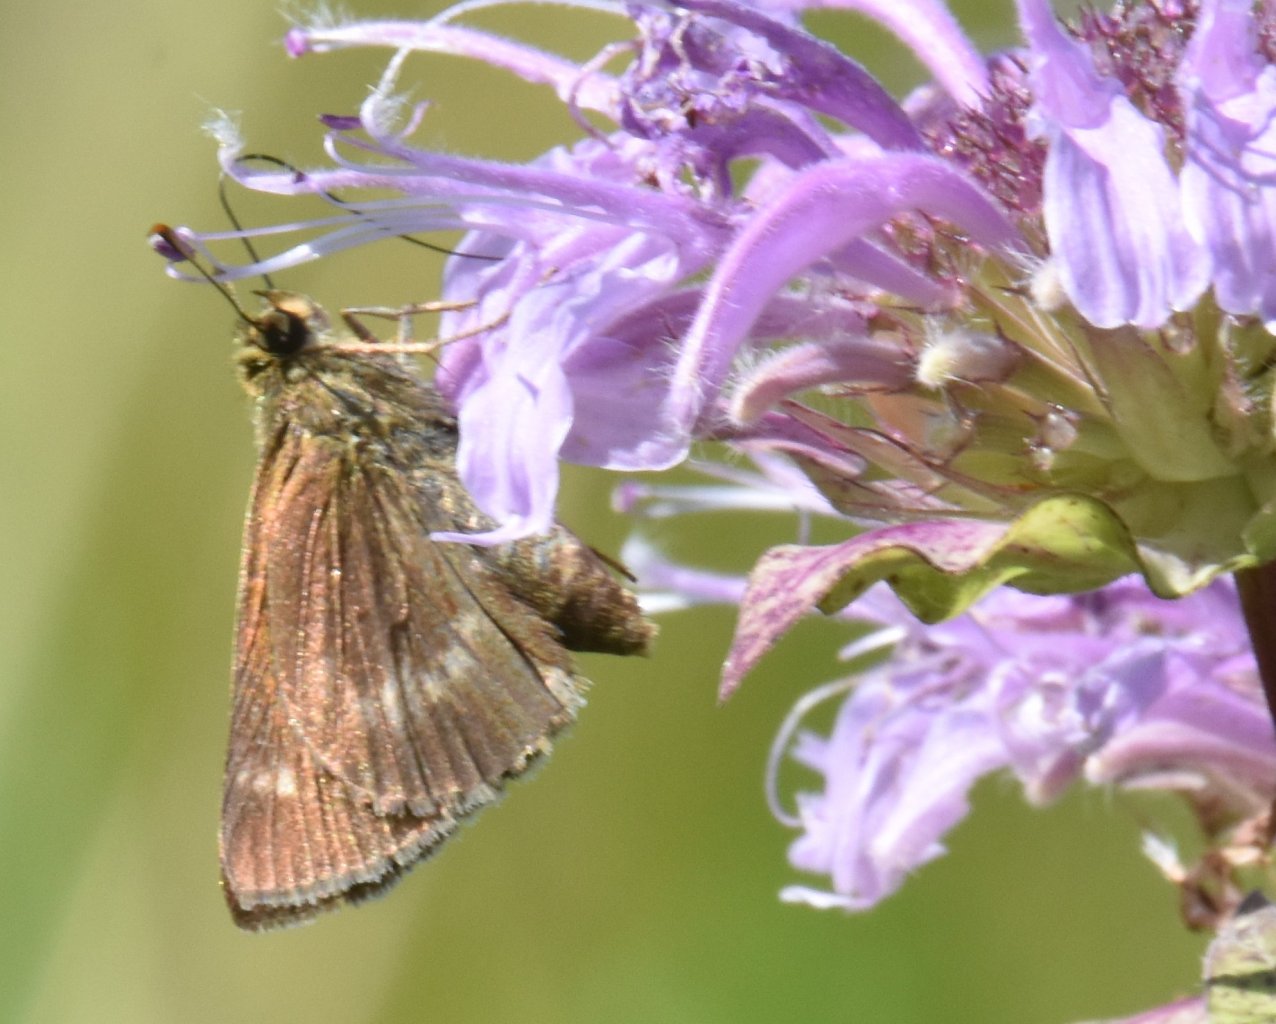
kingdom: Animalia
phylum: Arthropoda
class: Insecta
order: Lepidoptera
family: Hesperiidae
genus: Polites
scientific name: Polites egeremet
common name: Northern Broken-Dash
